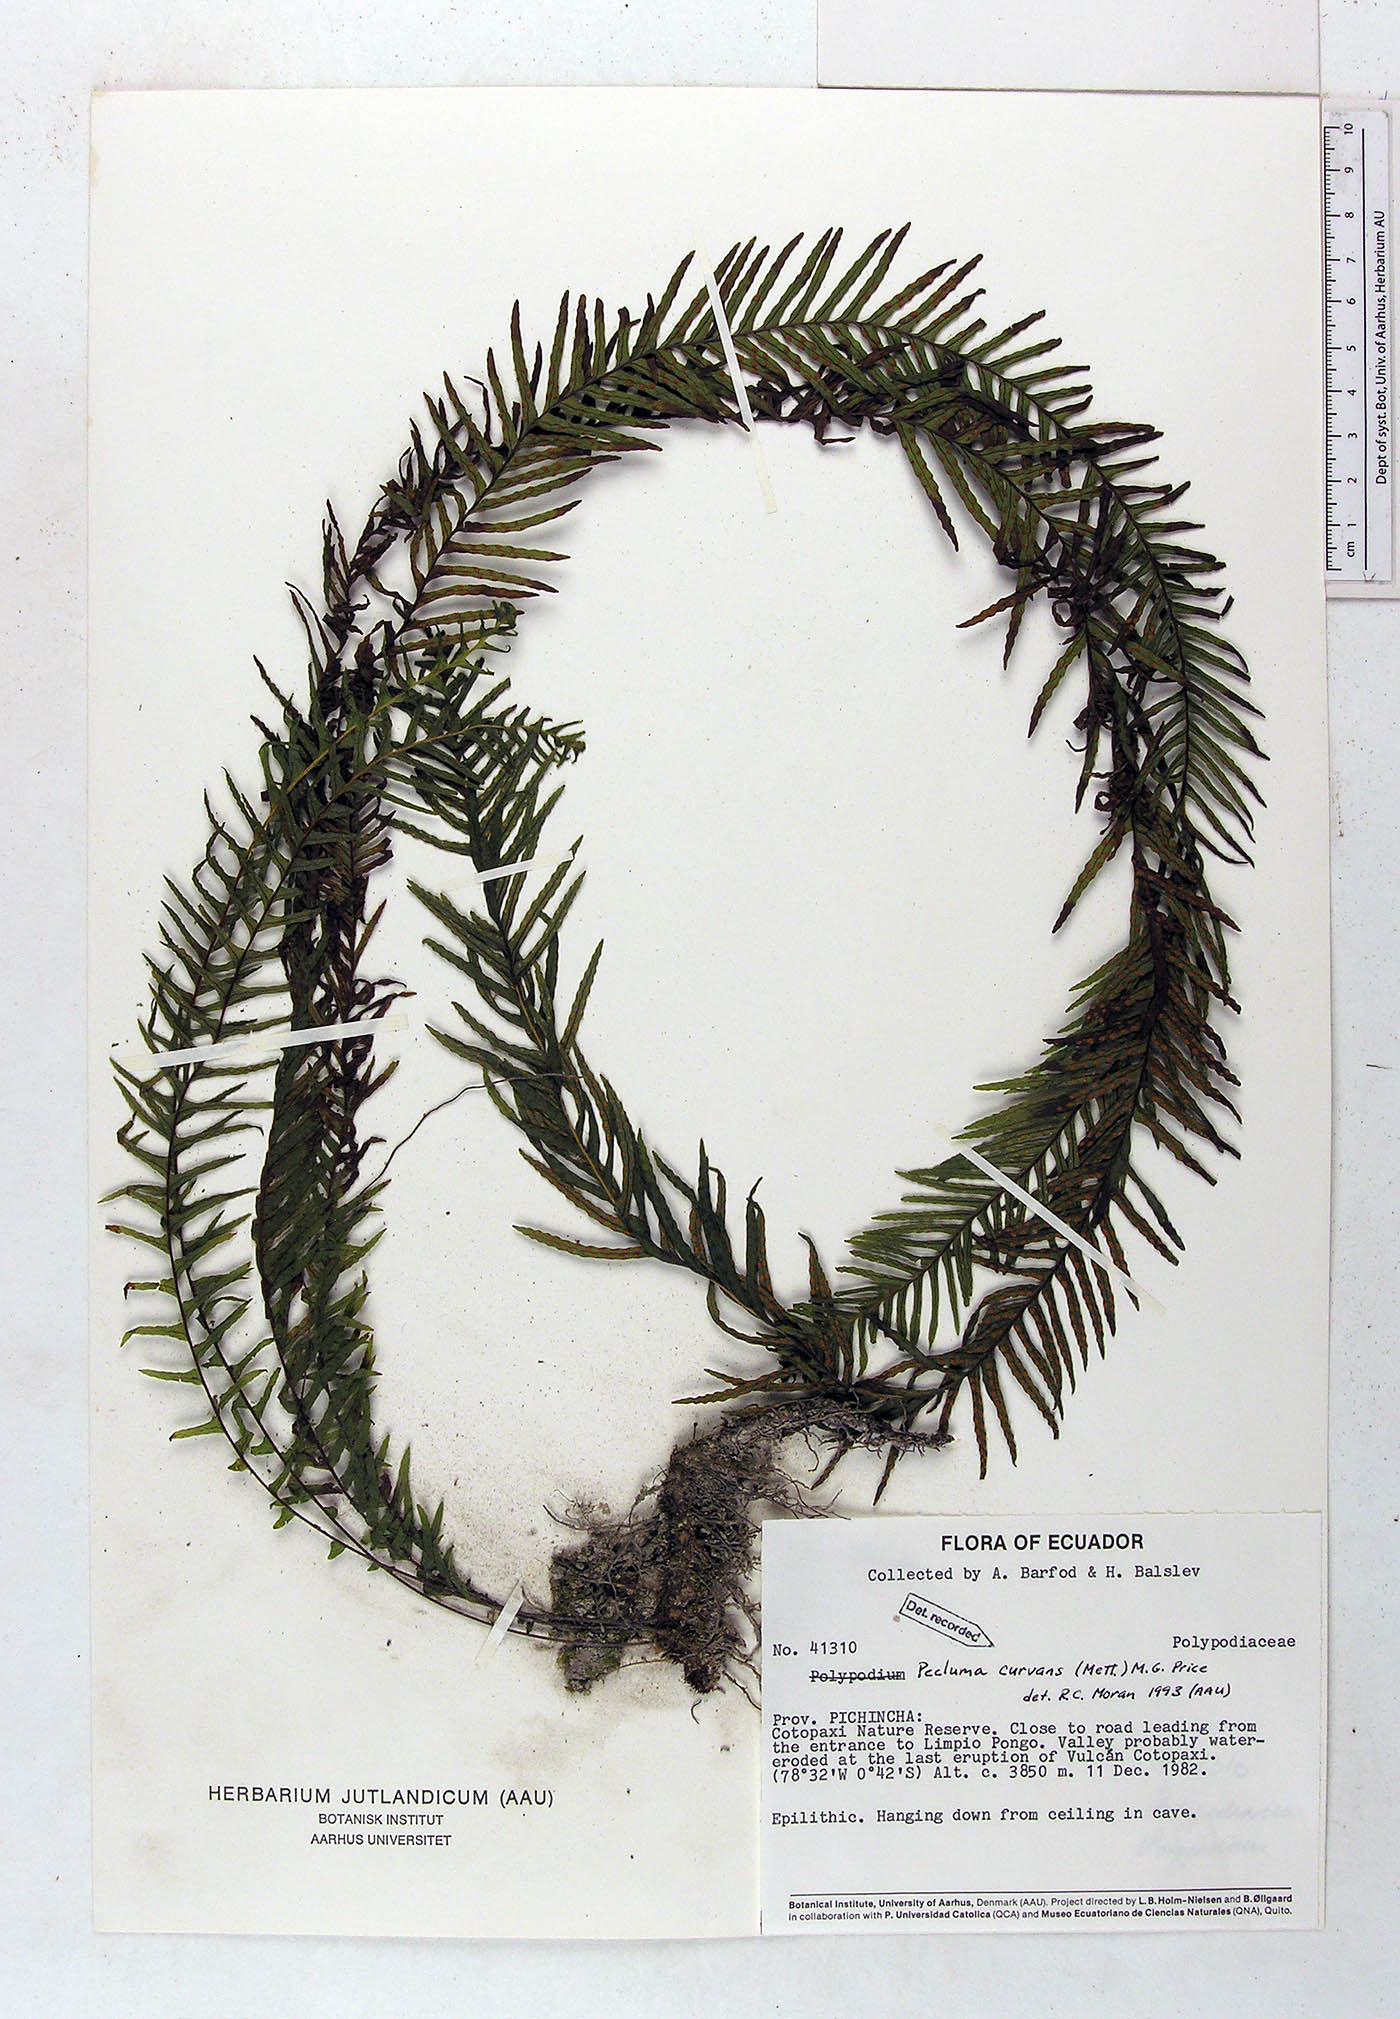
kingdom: Plantae
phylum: Tracheophyta
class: Polypodiopsida
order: Polypodiales
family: Polypodiaceae
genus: Pecluma
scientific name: Pecluma curvans
